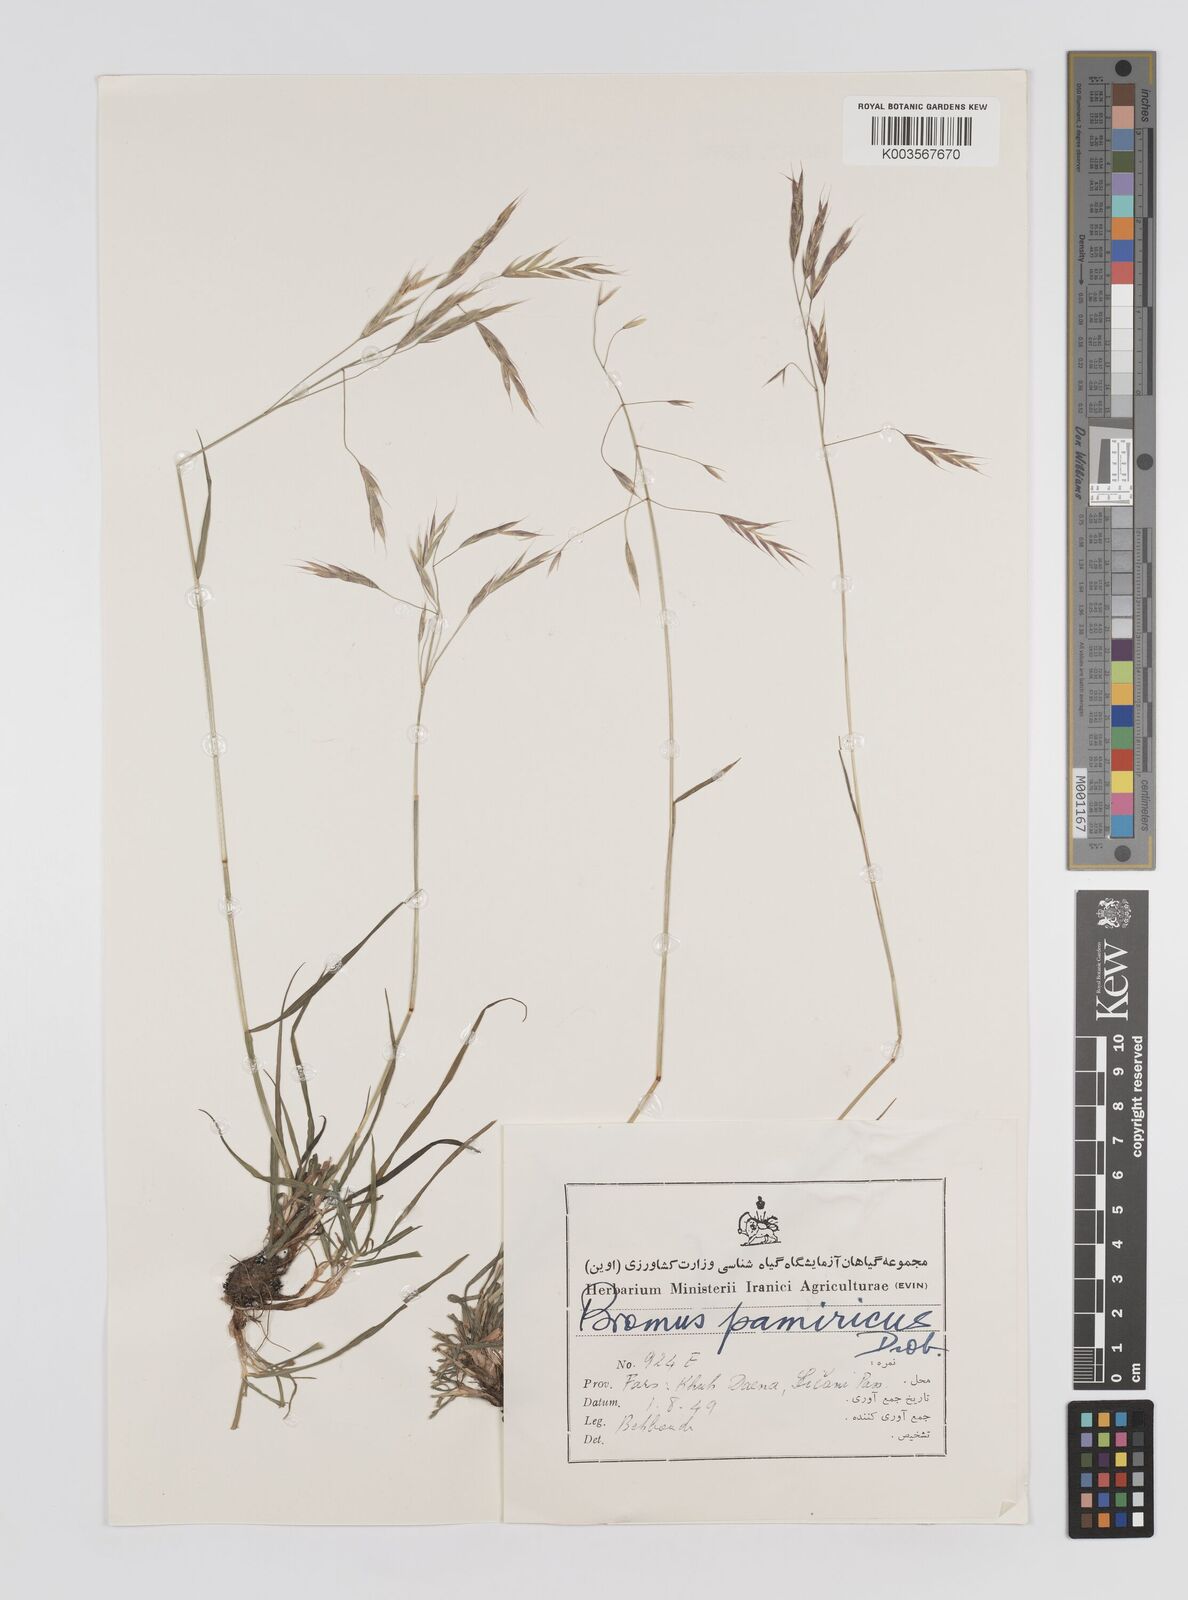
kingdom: Plantae
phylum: Tracheophyta
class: Liliopsida
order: Poales
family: Poaceae
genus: Bromus
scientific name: Bromus paulsenii
